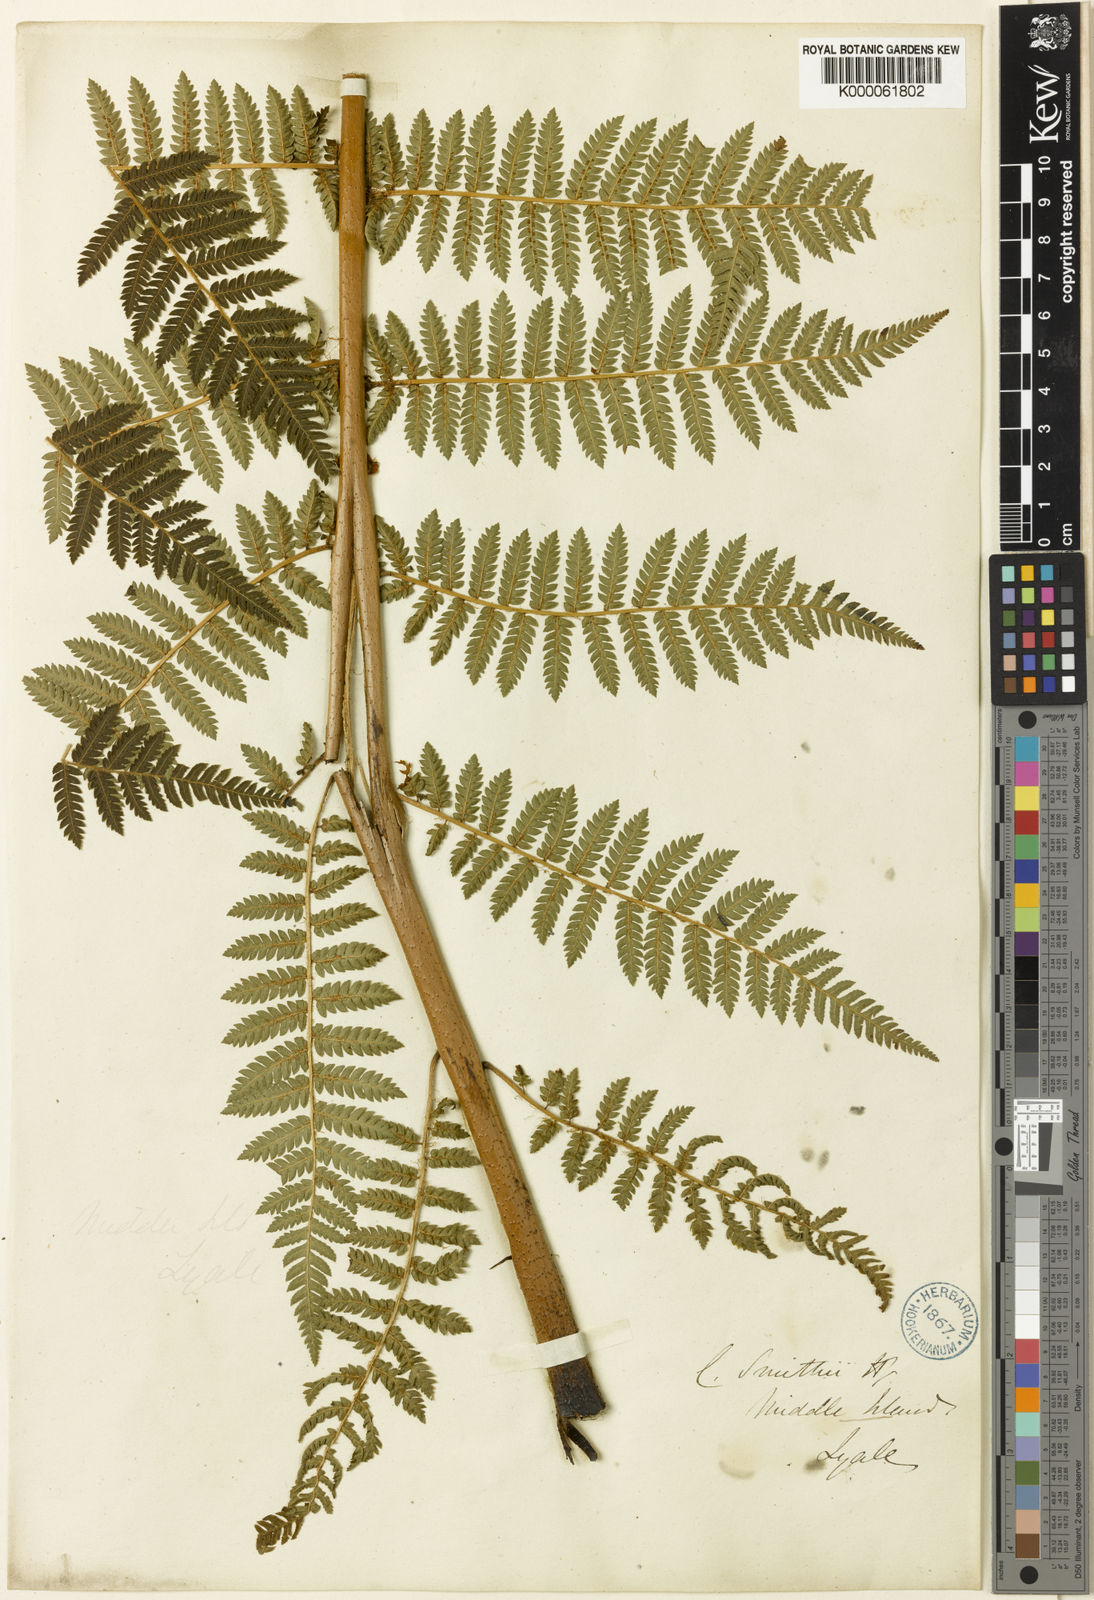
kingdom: Plantae
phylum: Tracheophyta
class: Polypodiopsida
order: Cyatheales
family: Cyatheaceae
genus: Alsophila
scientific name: Alsophila smithii
